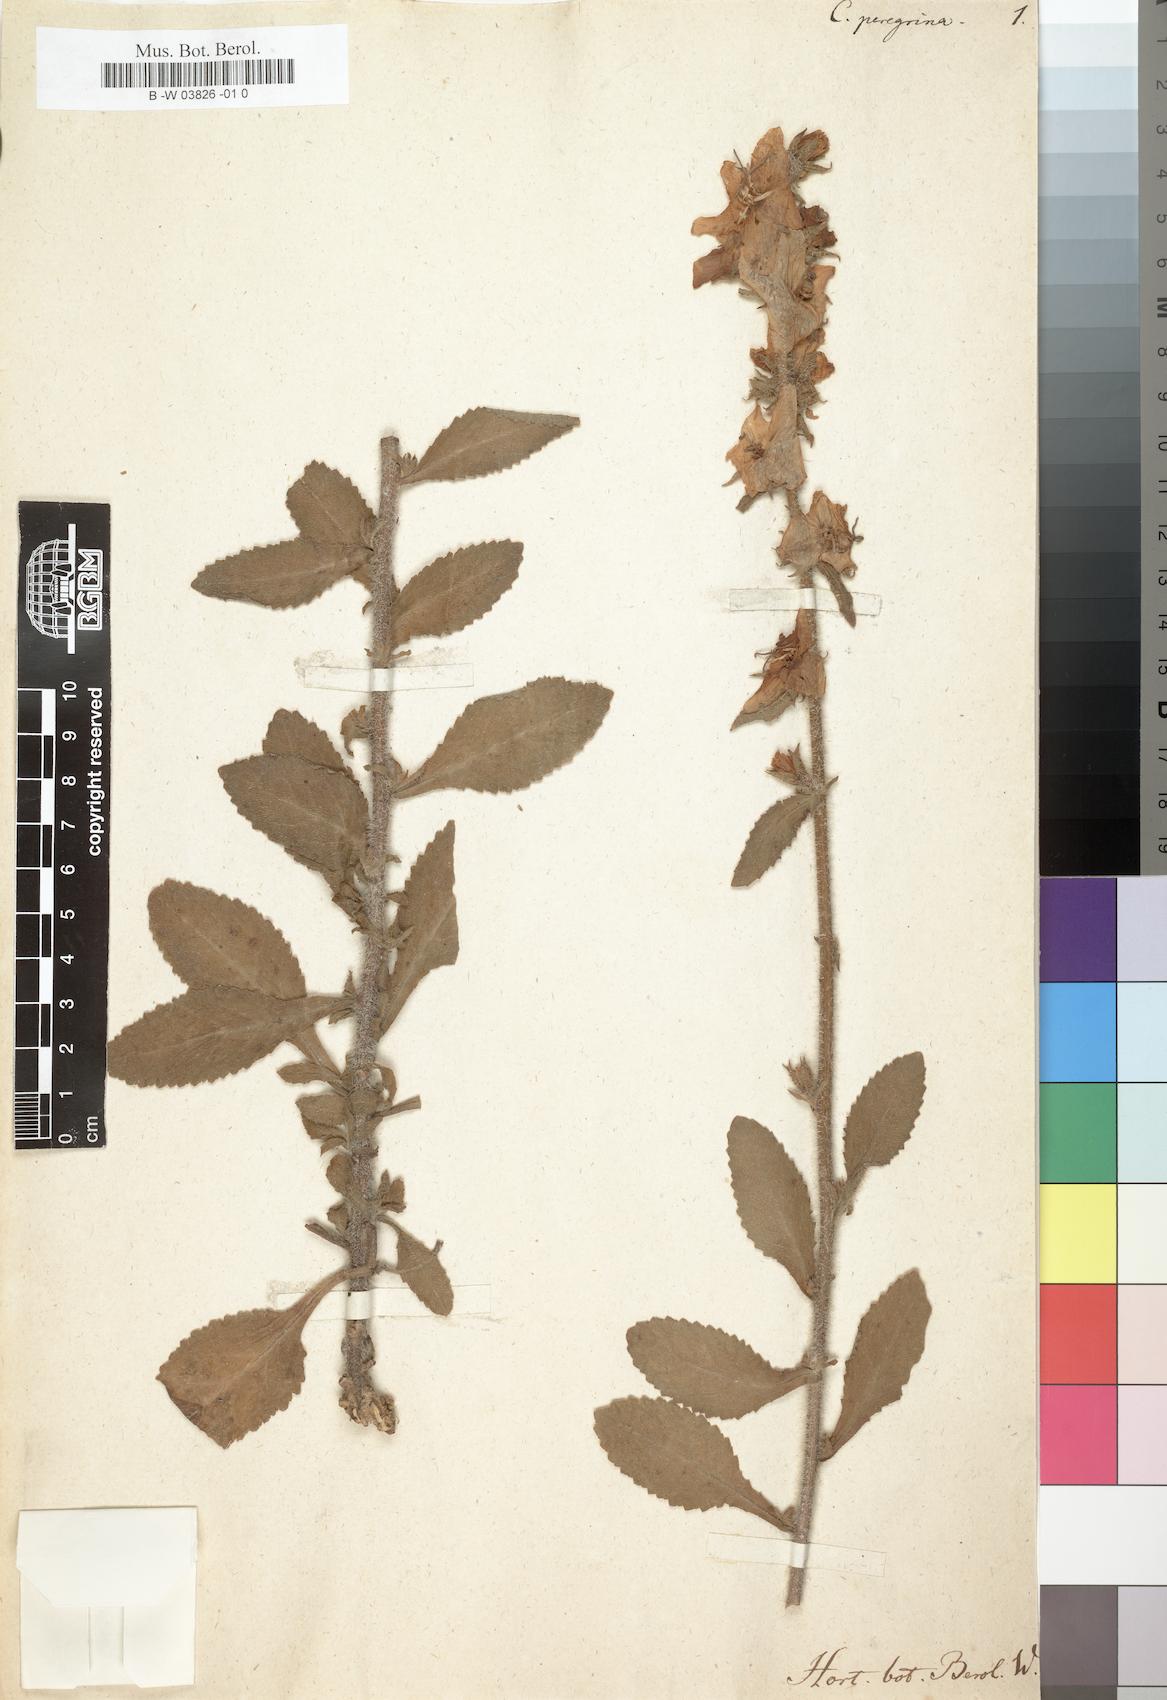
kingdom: Plantae
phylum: Tracheophyta
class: Magnoliopsida
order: Asterales
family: Campanulaceae
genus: Campanula
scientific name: Campanula peregrina
